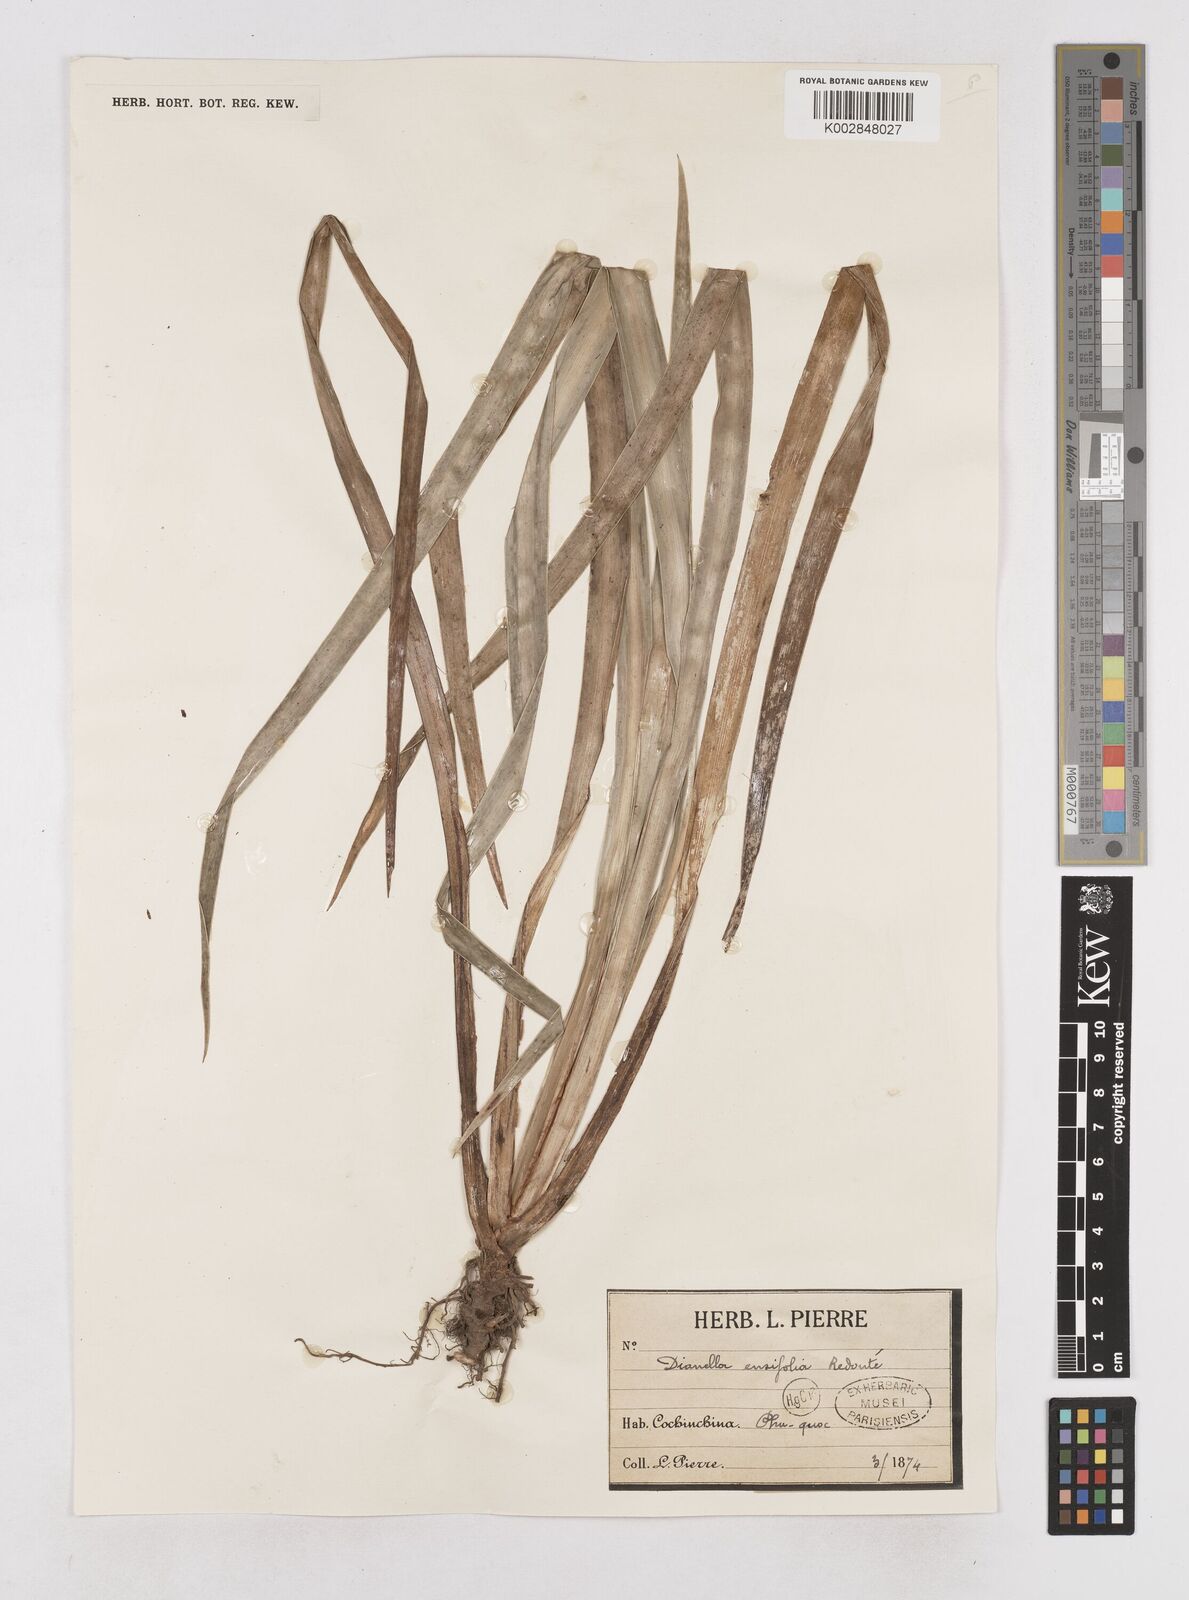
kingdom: Plantae
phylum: Tracheophyta
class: Liliopsida
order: Asparagales
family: Asphodelaceae
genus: Dianella
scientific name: Dianella ensifolia
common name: New zealand lilyplant
